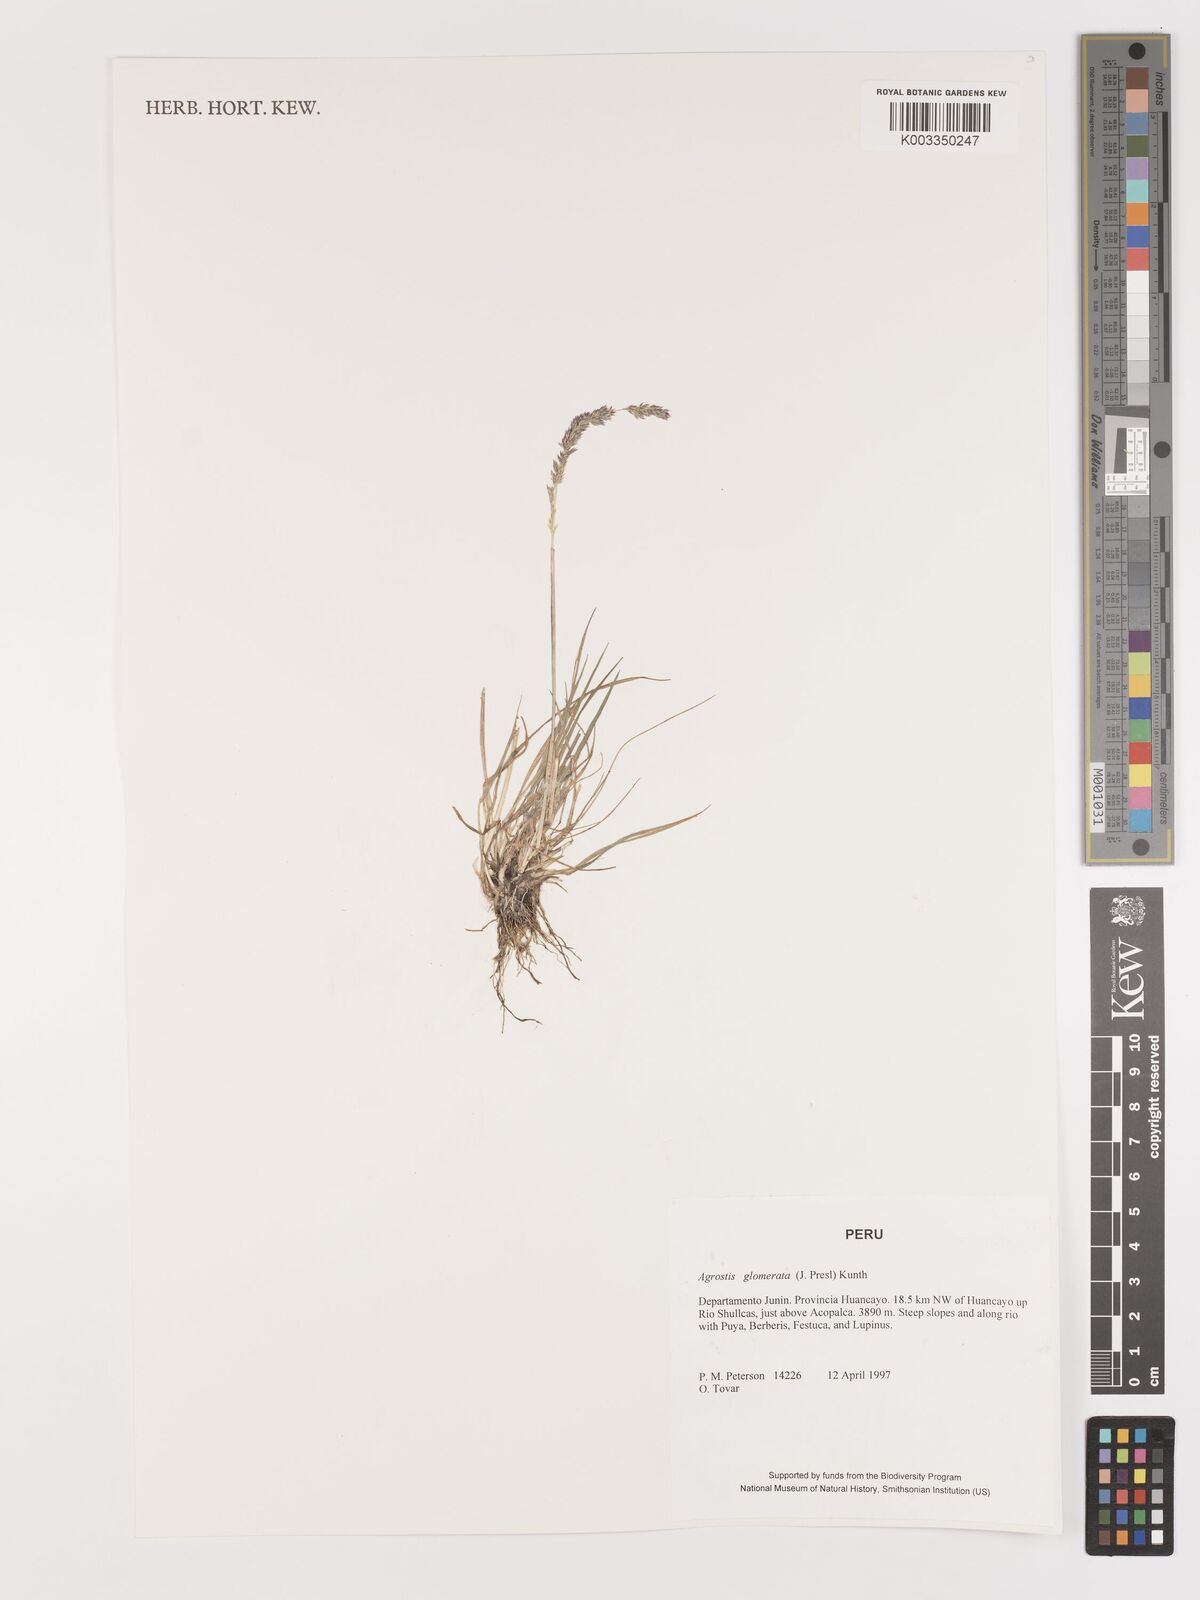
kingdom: Plantae
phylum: Tracheophyta
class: Liliopsida
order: Poales
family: Poaceae
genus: Agrostis
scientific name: Agrostis
